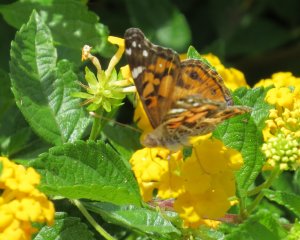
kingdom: Animalia
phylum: Arthropoda
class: Insecta
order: Lepidoptera
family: Nymphalidae
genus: Vanessa
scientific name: Vanessa virginiensis
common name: American Lady
